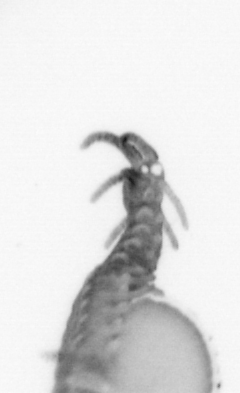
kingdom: Animalia
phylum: Annelida
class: Polychaeta
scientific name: Polychaeta
